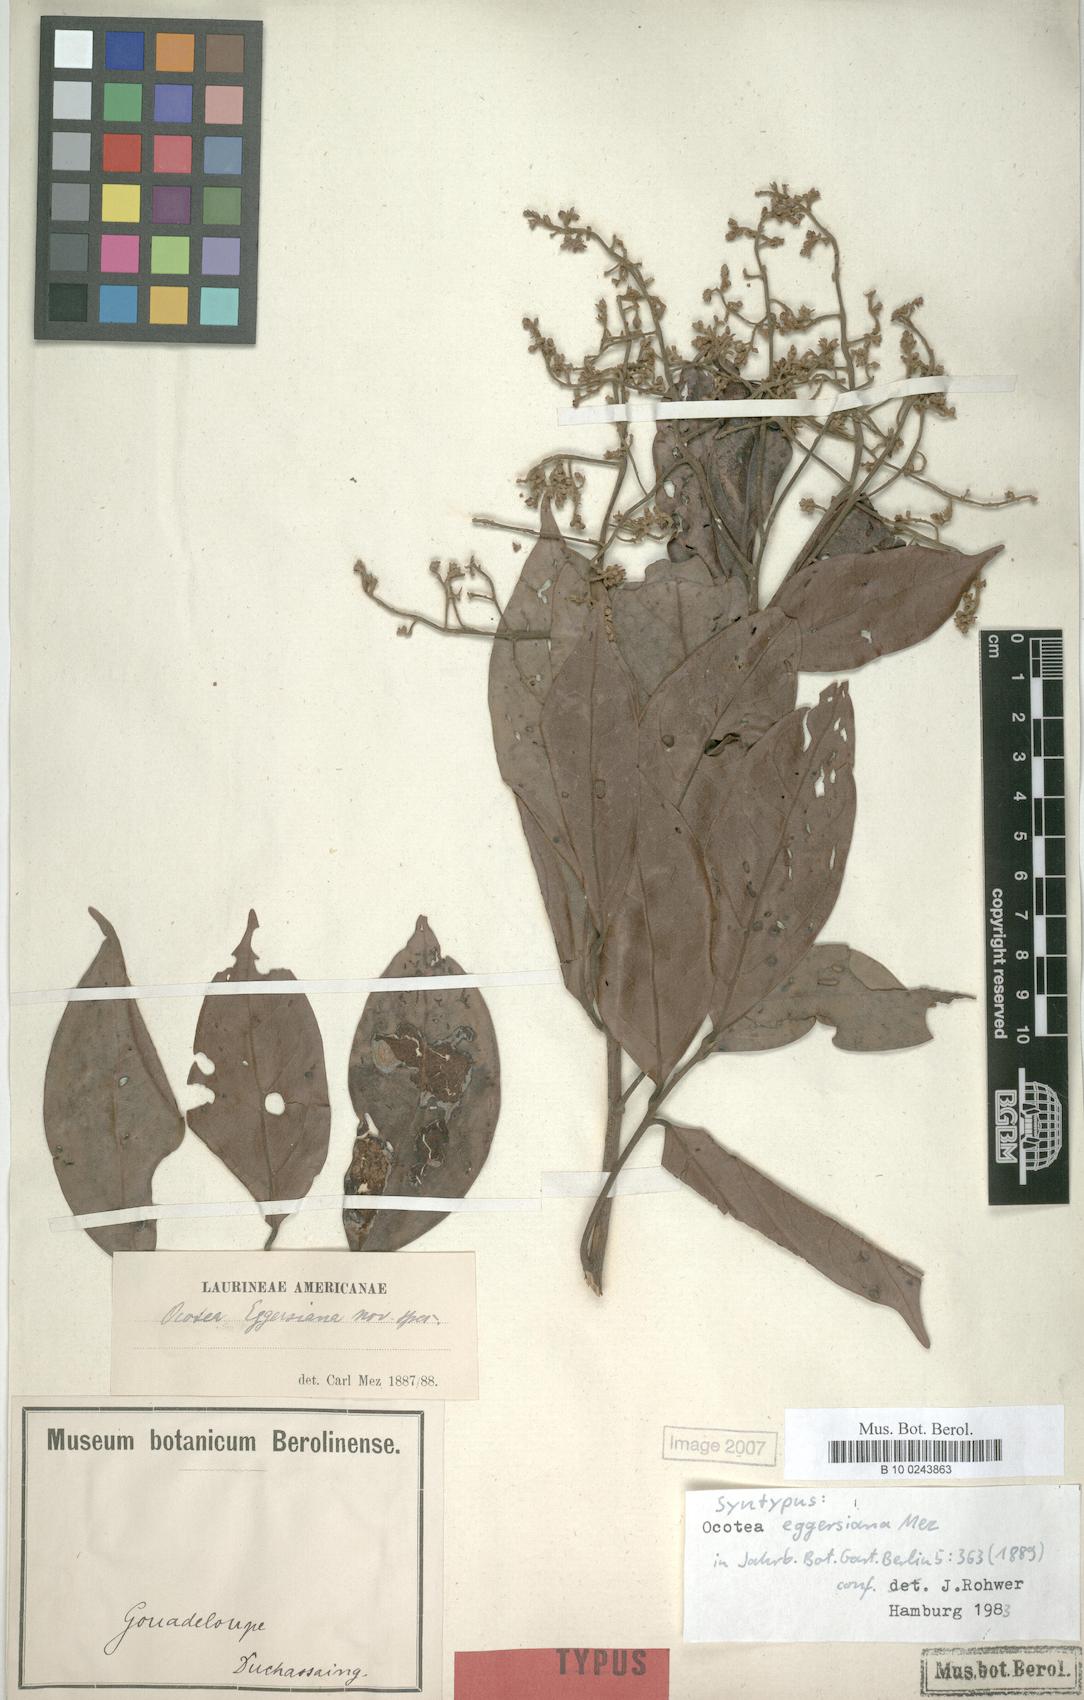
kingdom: Plantae
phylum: Tracheophyta
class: Magnoliopsida
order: Laurales
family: Lauraceae
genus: Ocotea
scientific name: Ocotea eggersiana
